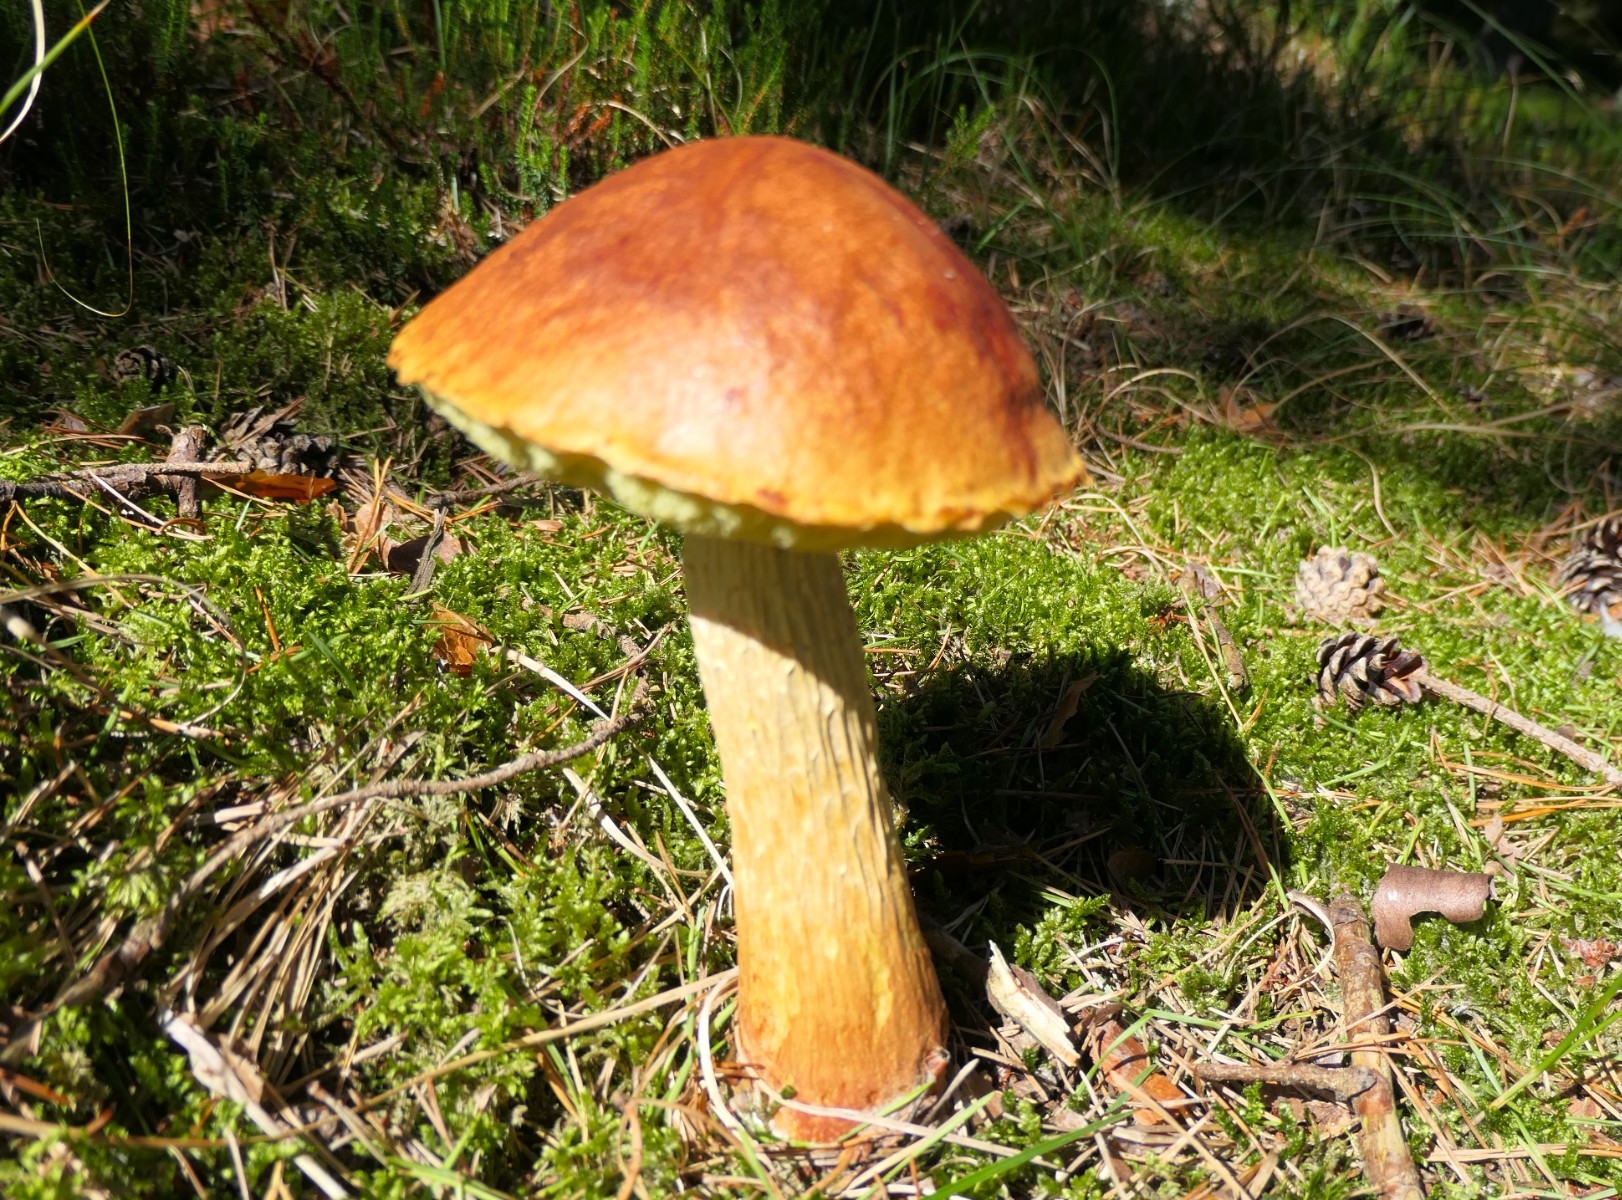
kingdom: Fungi
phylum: Basidiomycota
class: Agaricomycetes
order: Boletales
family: Boletaceae
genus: Aureoboletus
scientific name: Aureoboletus projectellus
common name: ribbestokket rørhat
